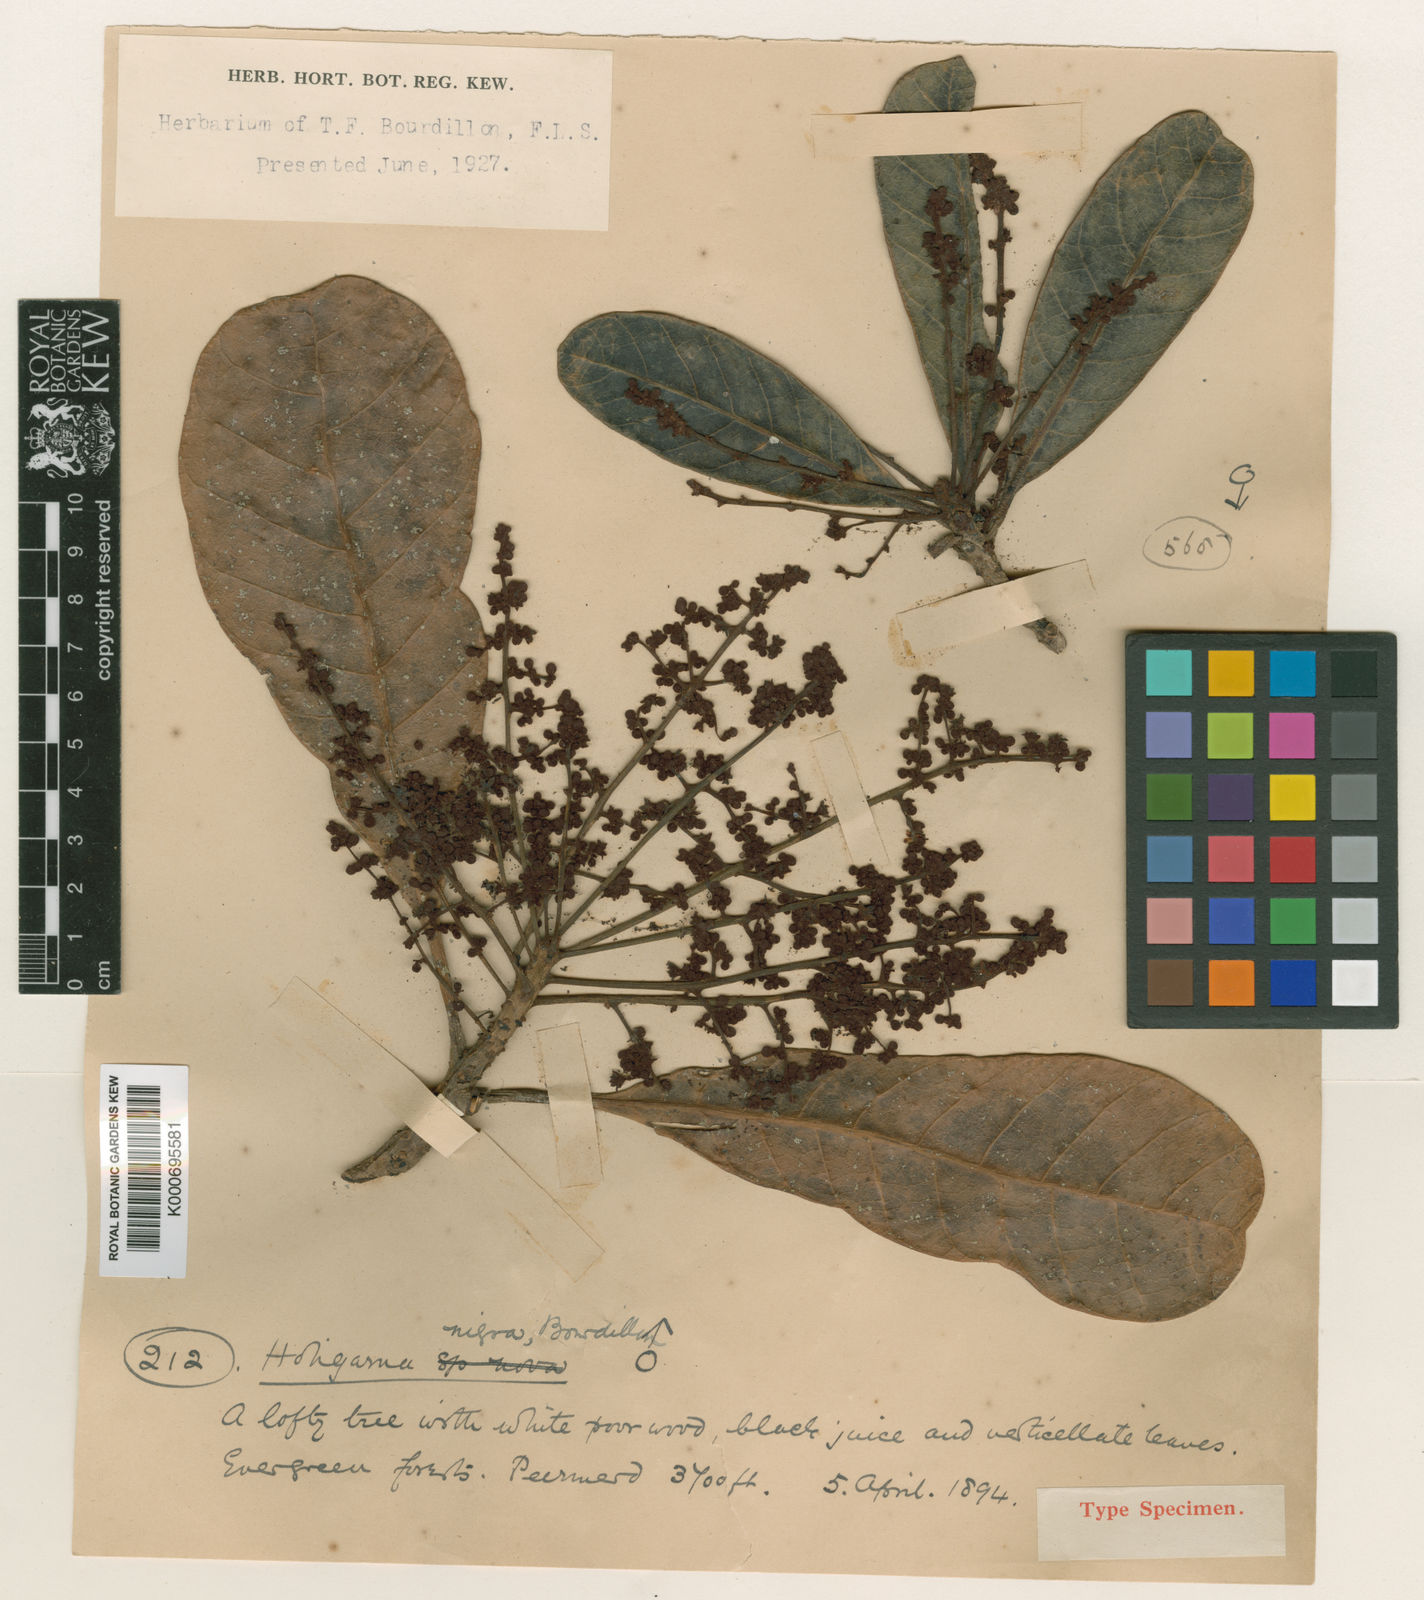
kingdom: Plantae
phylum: Tracheophyta
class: Magnoliopsida
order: Sapindales
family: Anacardiaceae
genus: Holigarna
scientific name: Holigarna nigra
